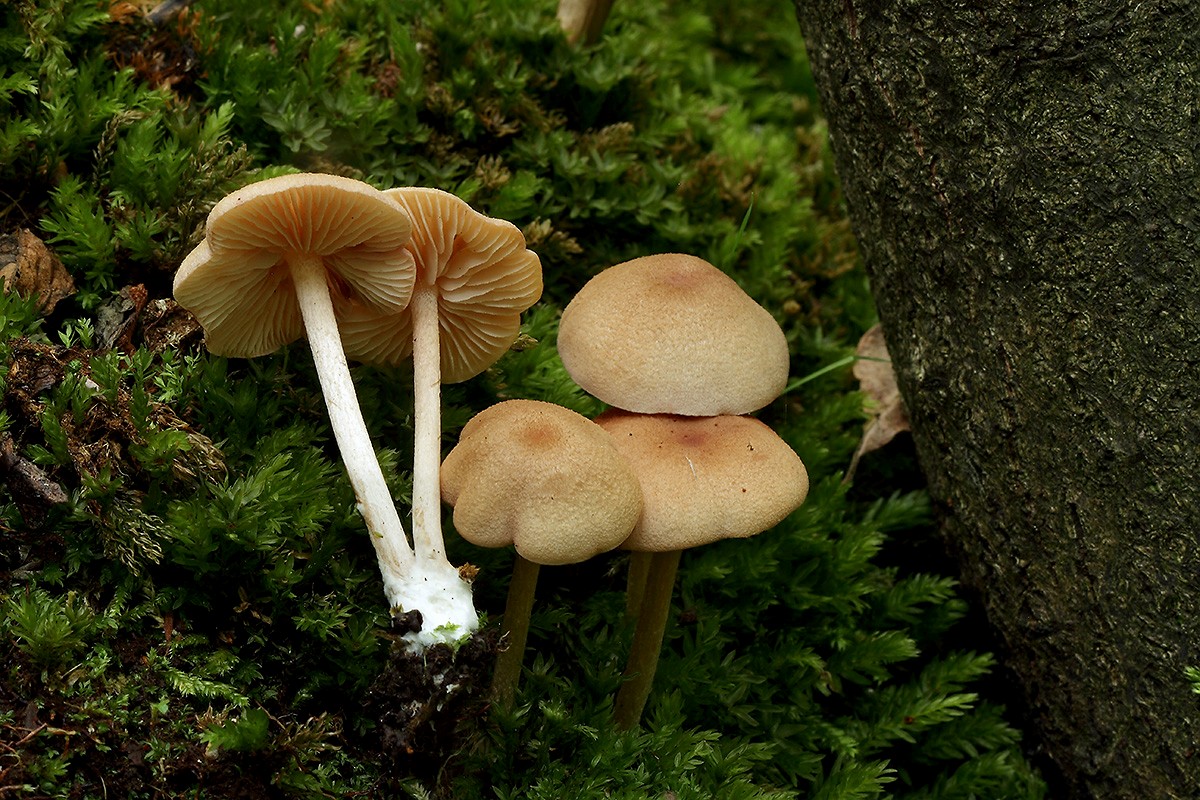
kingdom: Fungi
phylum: Basidiomycota
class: Agaricomycetes
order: Agaricales
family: Entolomataceae
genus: Entoloma
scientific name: Entoloma queletii
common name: rosalilla rødblad
